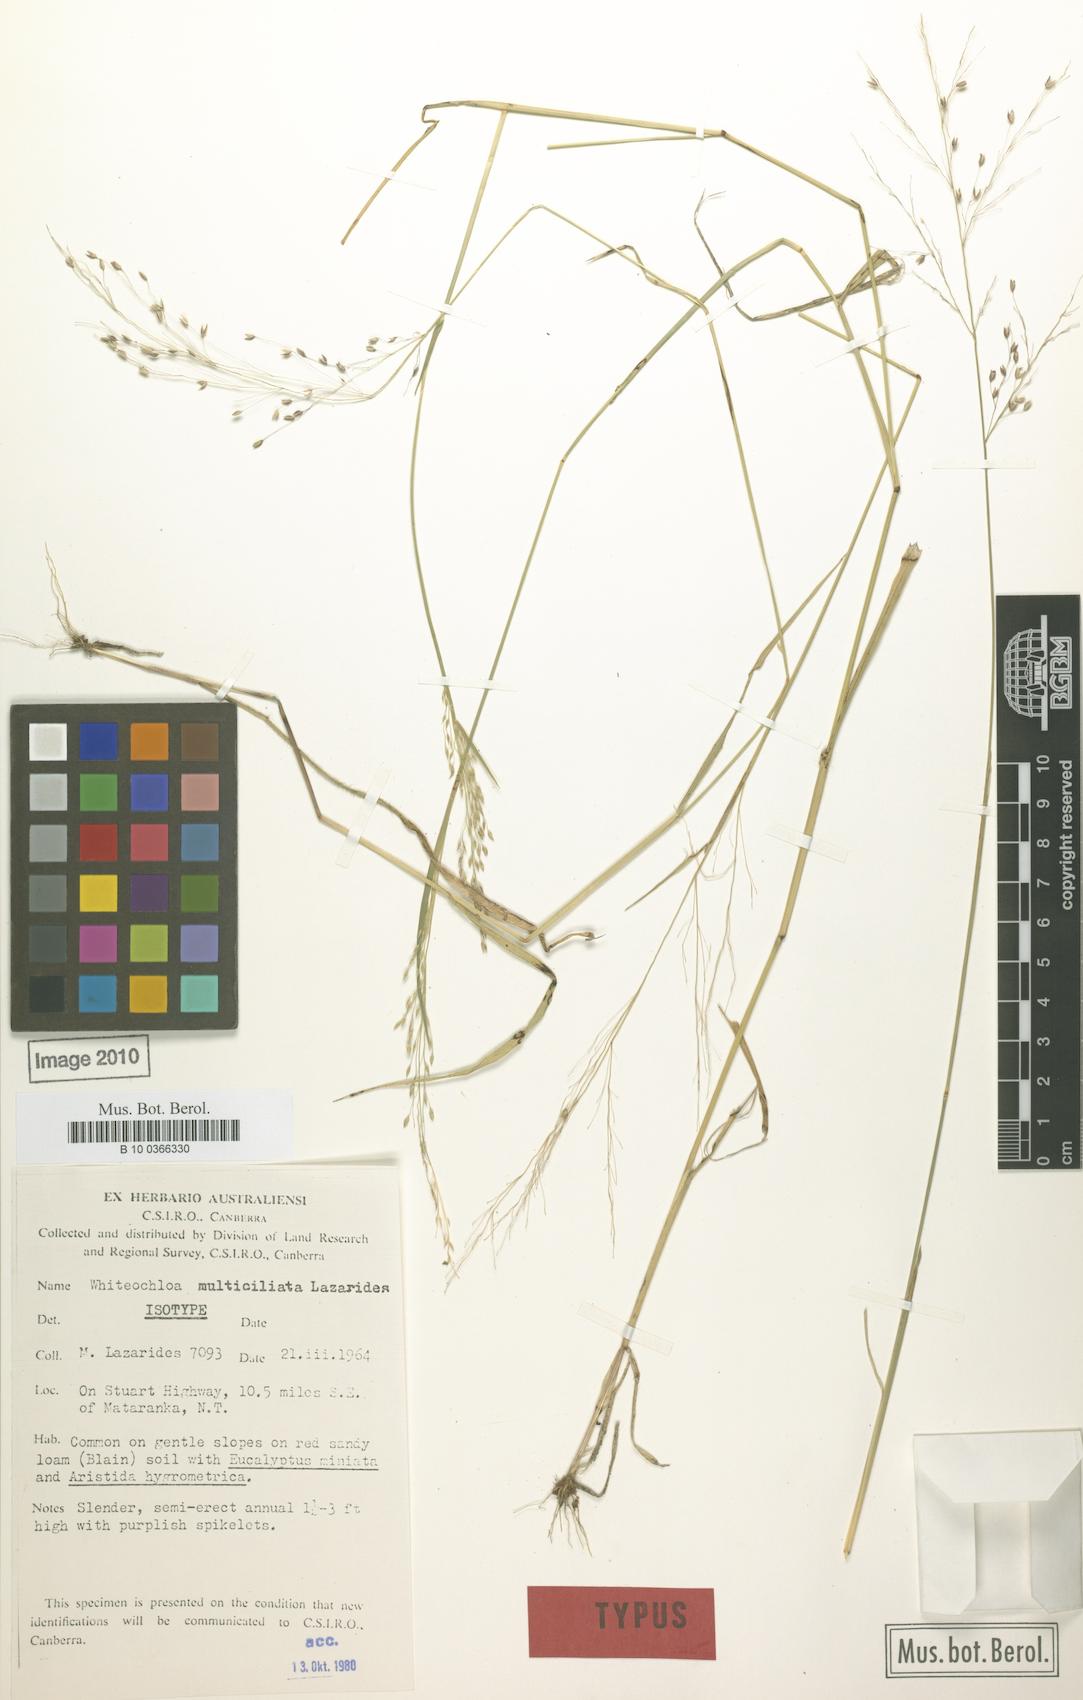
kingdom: Plantae
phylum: Tracheophyta
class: Liliopsida
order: Poales
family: Poaceae
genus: Whiteochloa
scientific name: Whiteochloa multiciliata
